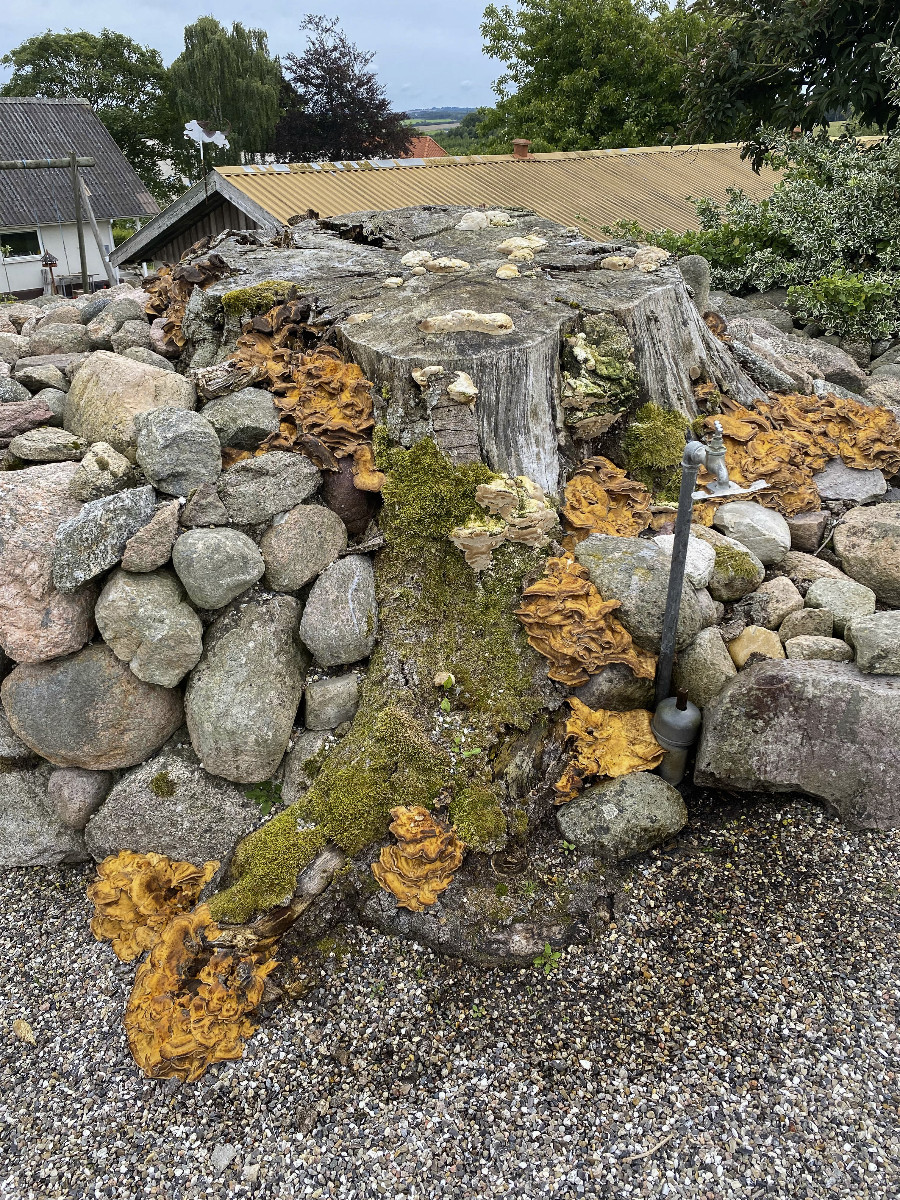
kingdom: Fungi
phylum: Basidiomycota
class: Agaricomycetes
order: Polyporales
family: Meripilaceae
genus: Meripilus
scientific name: Meripilus giganteus
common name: kæmpeporesvamp
